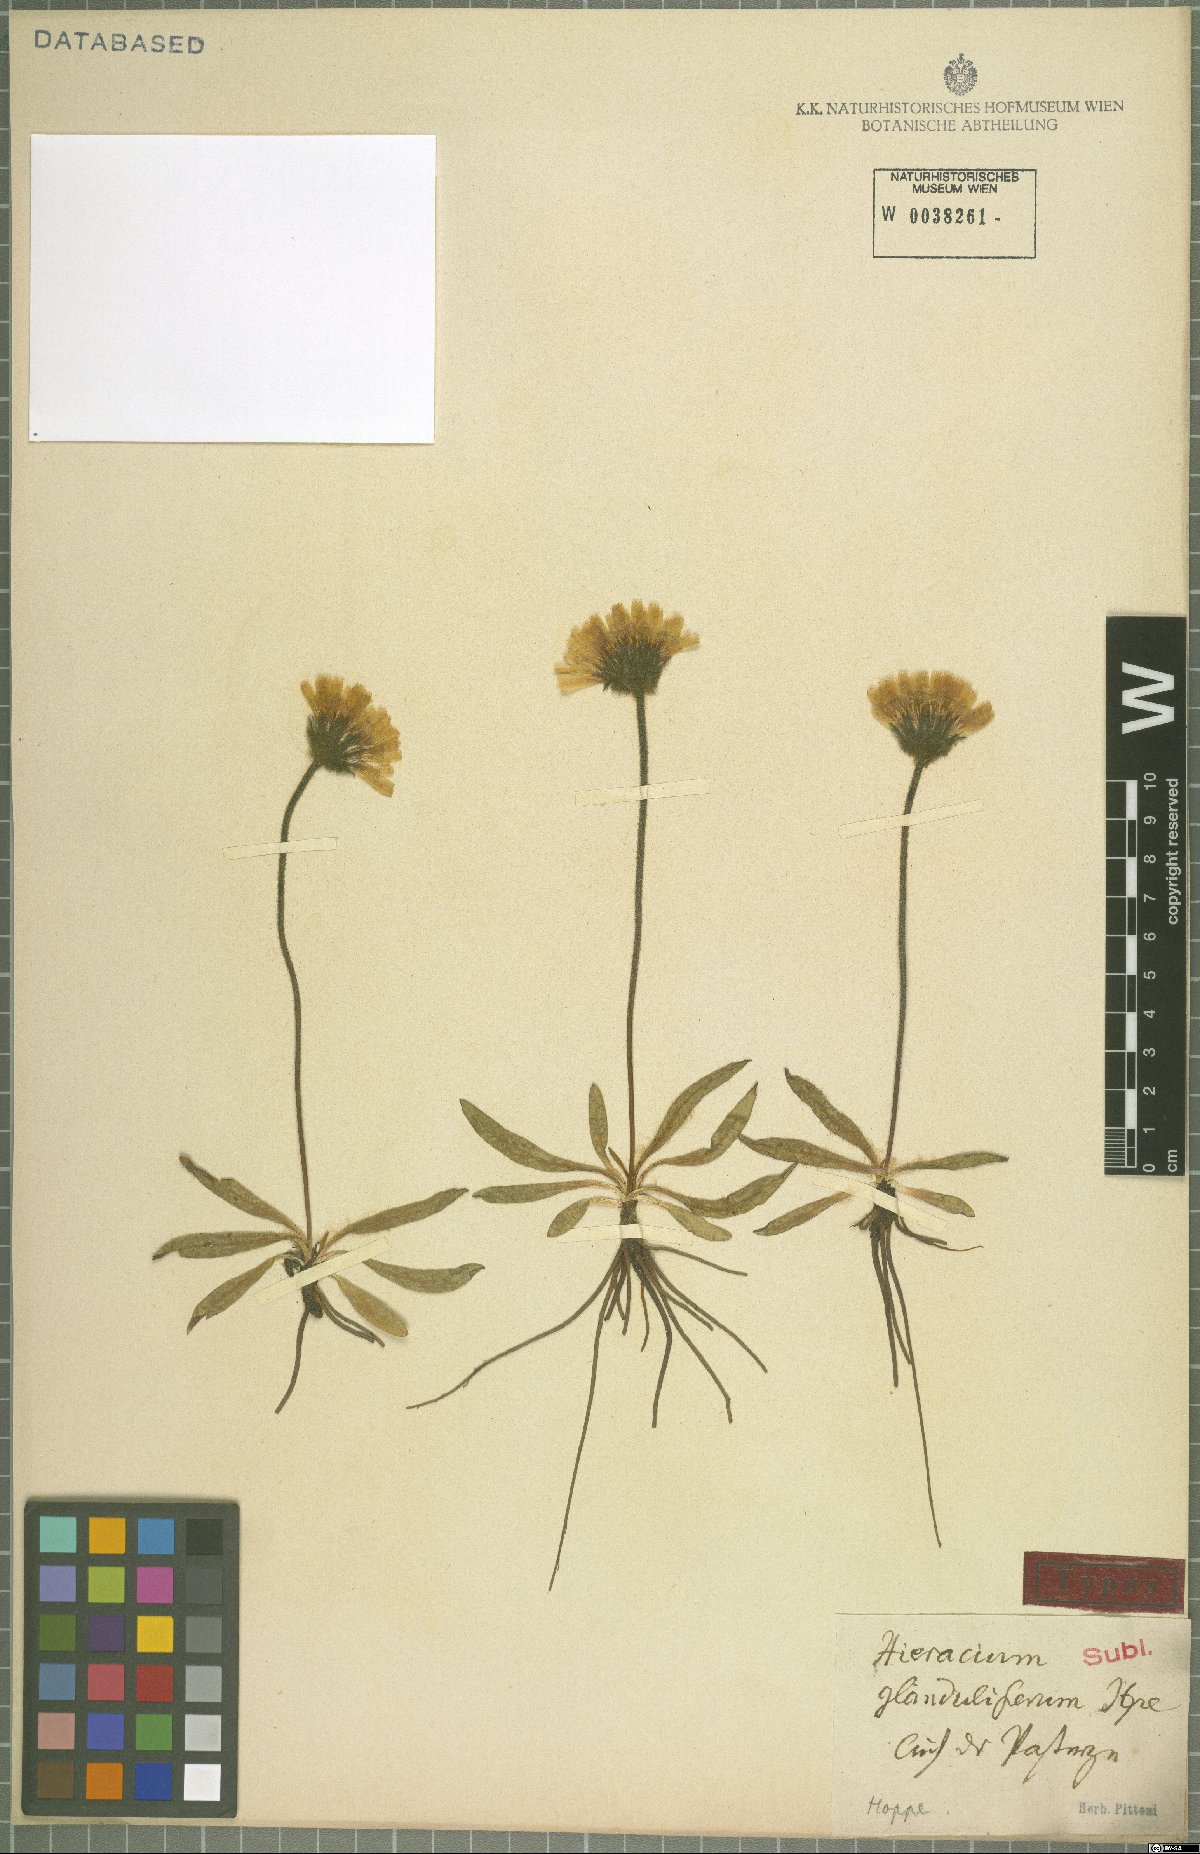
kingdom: Plantae
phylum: Tracheophyta
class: Magnoliopsida
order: Asterales
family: Asteraceae
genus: Hieracium
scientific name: Hieracium piliferum
